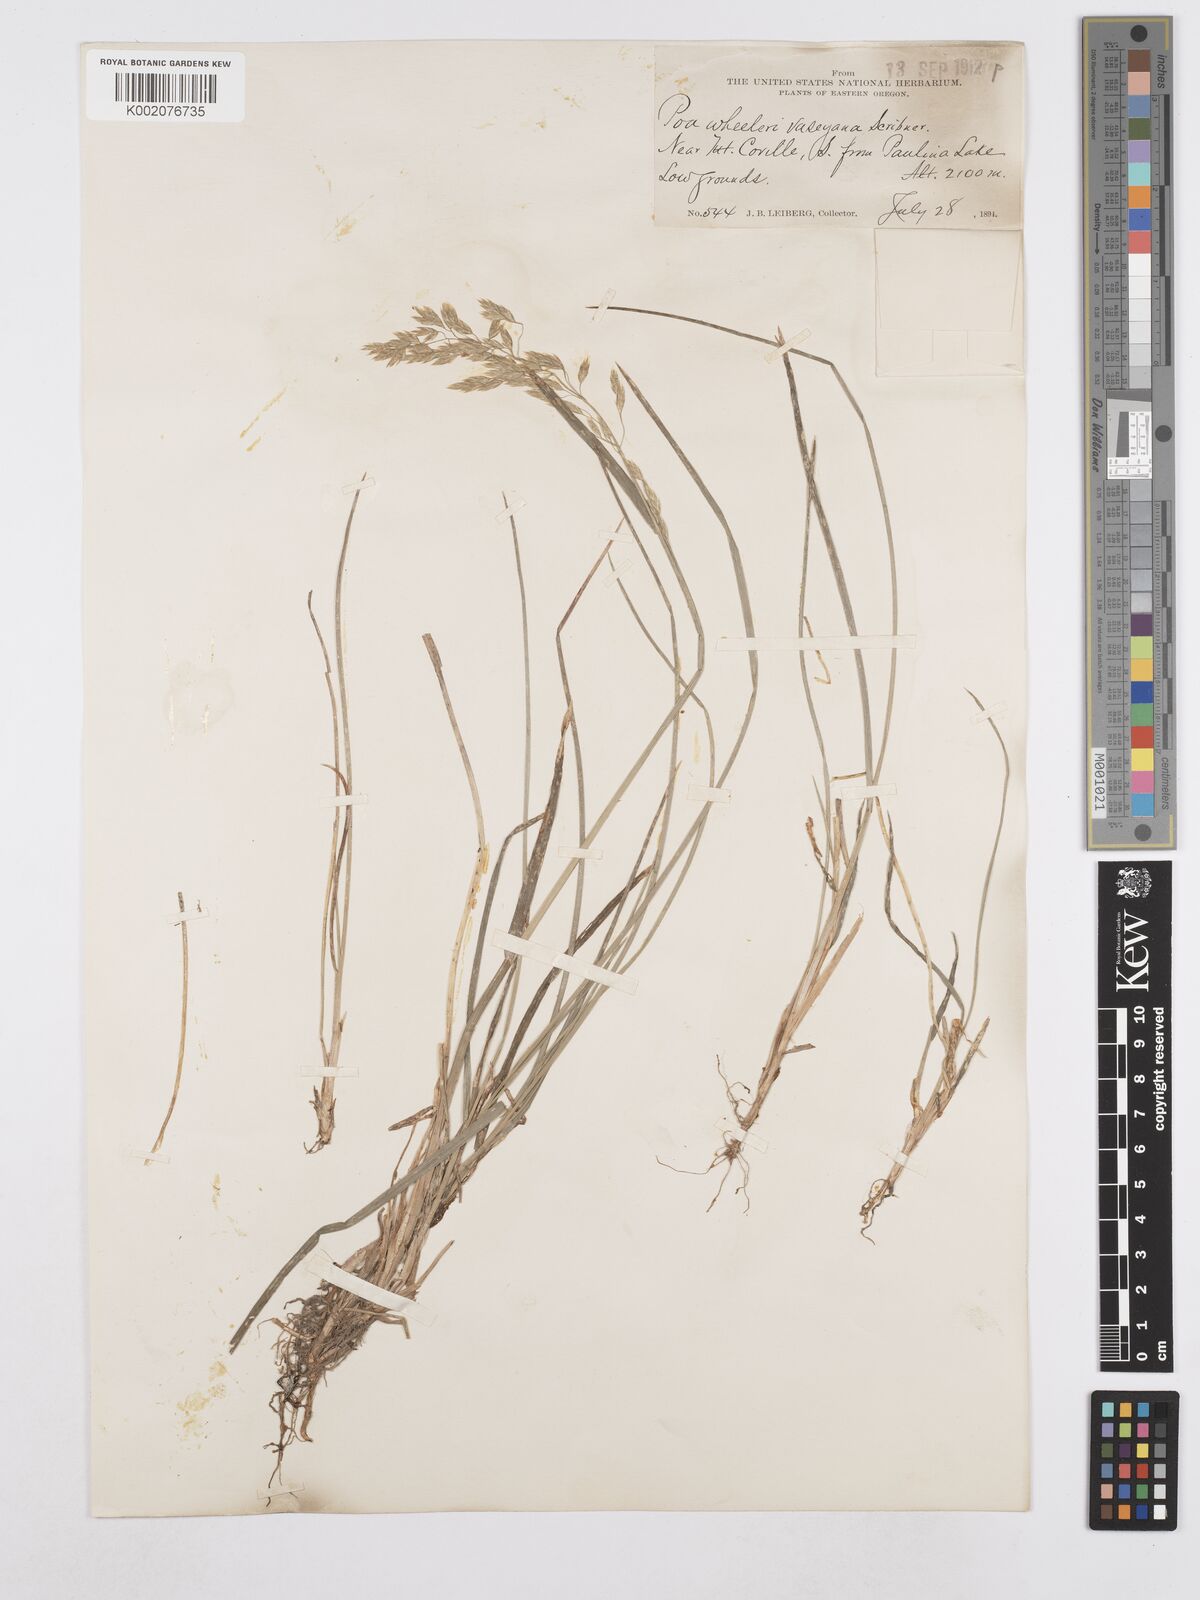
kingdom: Plantae
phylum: Tracheophyta
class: Liliopsida
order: Poales
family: Poaceae
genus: Poa
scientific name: Poa wheeleri
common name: Wheeler's bluegrass
